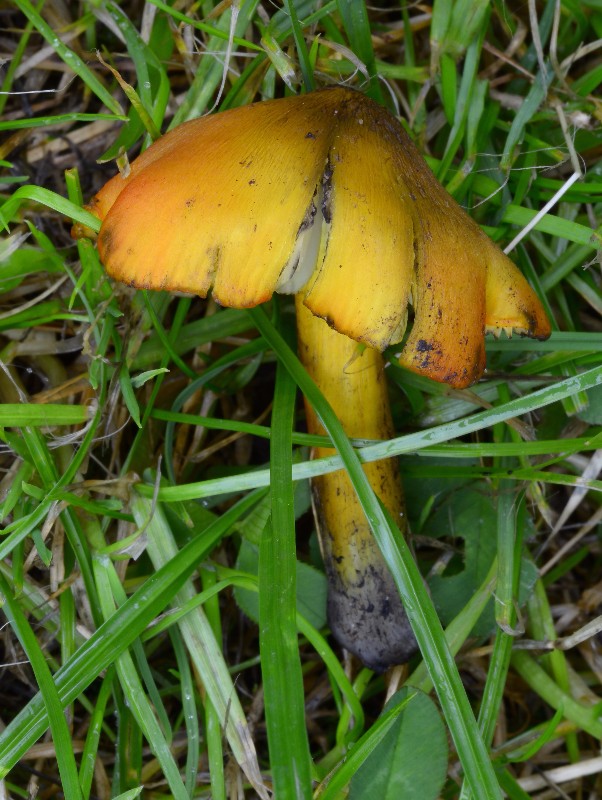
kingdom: Fungi
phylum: Basidiomycota
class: Agaricomycetes
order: Agaricales
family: Hygrophoraceae
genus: Hygrocybe
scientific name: Hygrocybe conica
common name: kegle-vokshat
